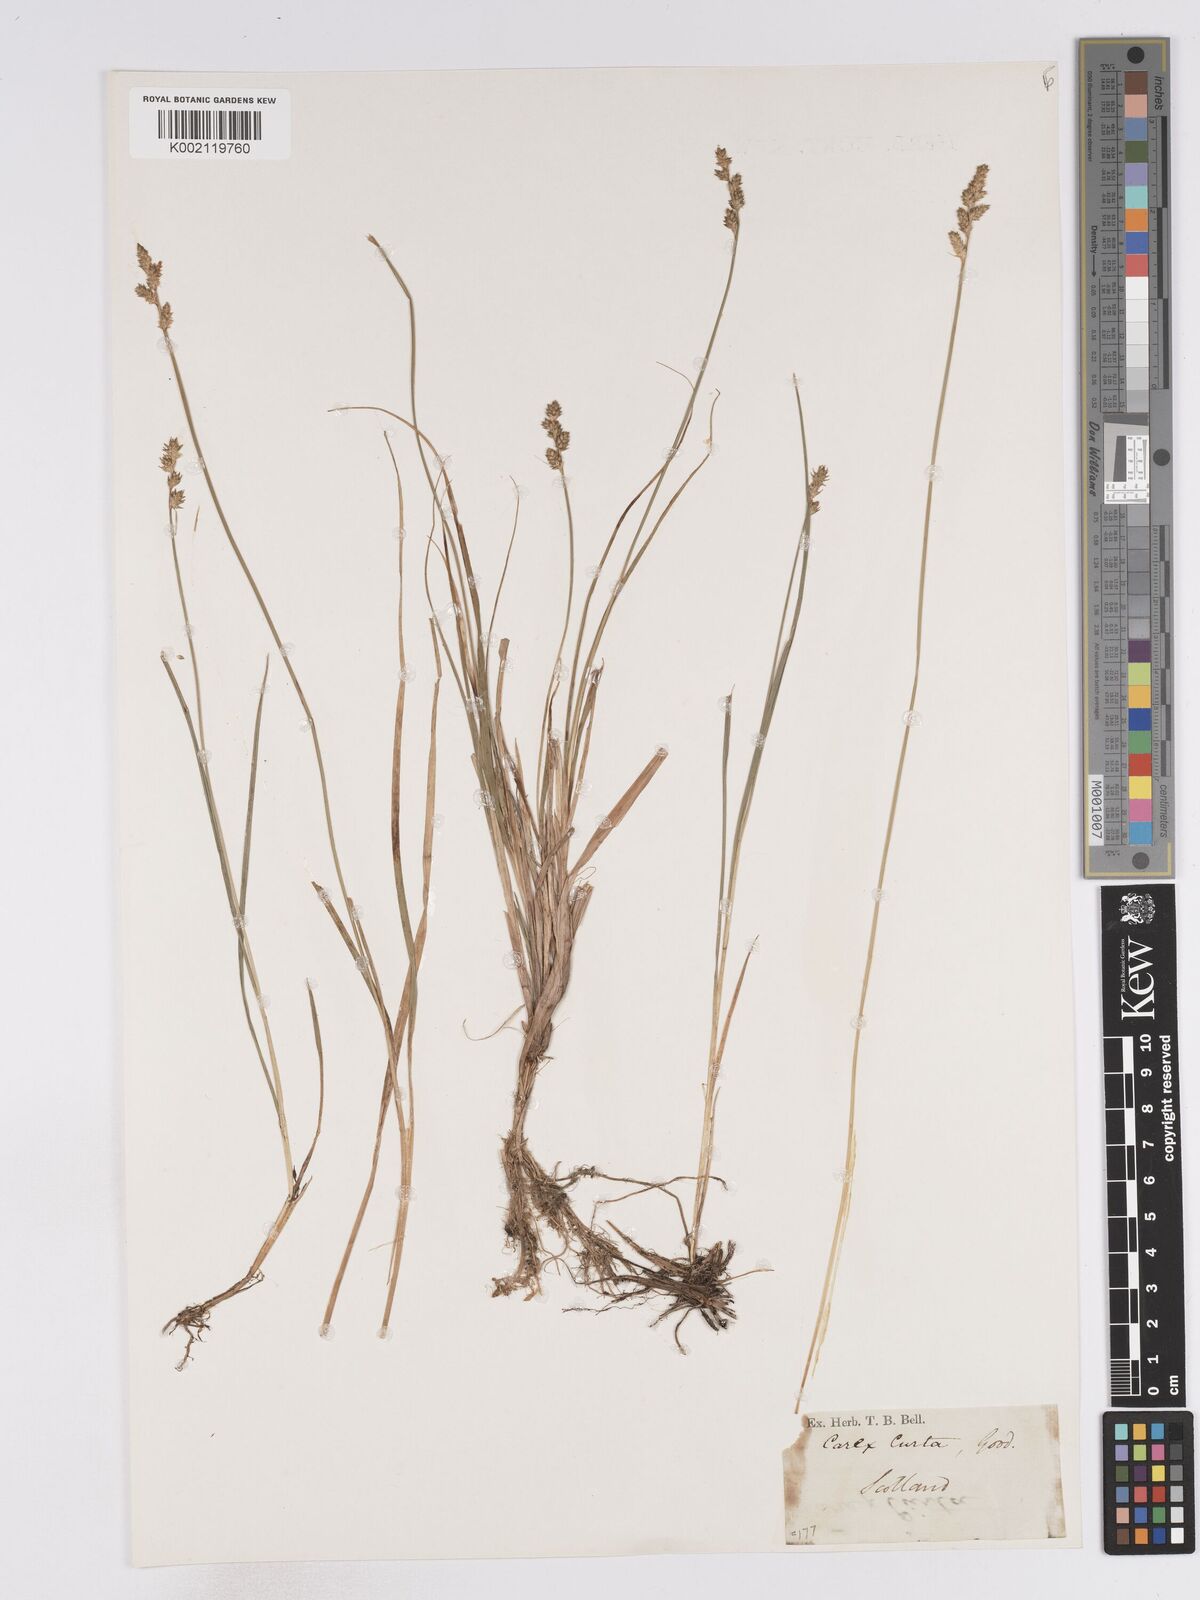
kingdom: Plantae
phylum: Tracheophyta
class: Liliopsida
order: Poales
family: Cyperaceae
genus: Carex
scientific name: Carex curta
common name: White sedge
